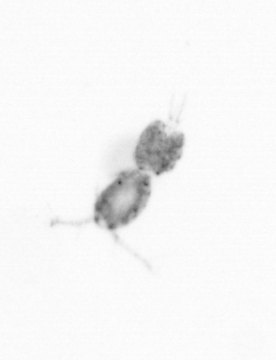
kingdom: Animalia
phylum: Arthropoda
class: Copepoda
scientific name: Copepoda
